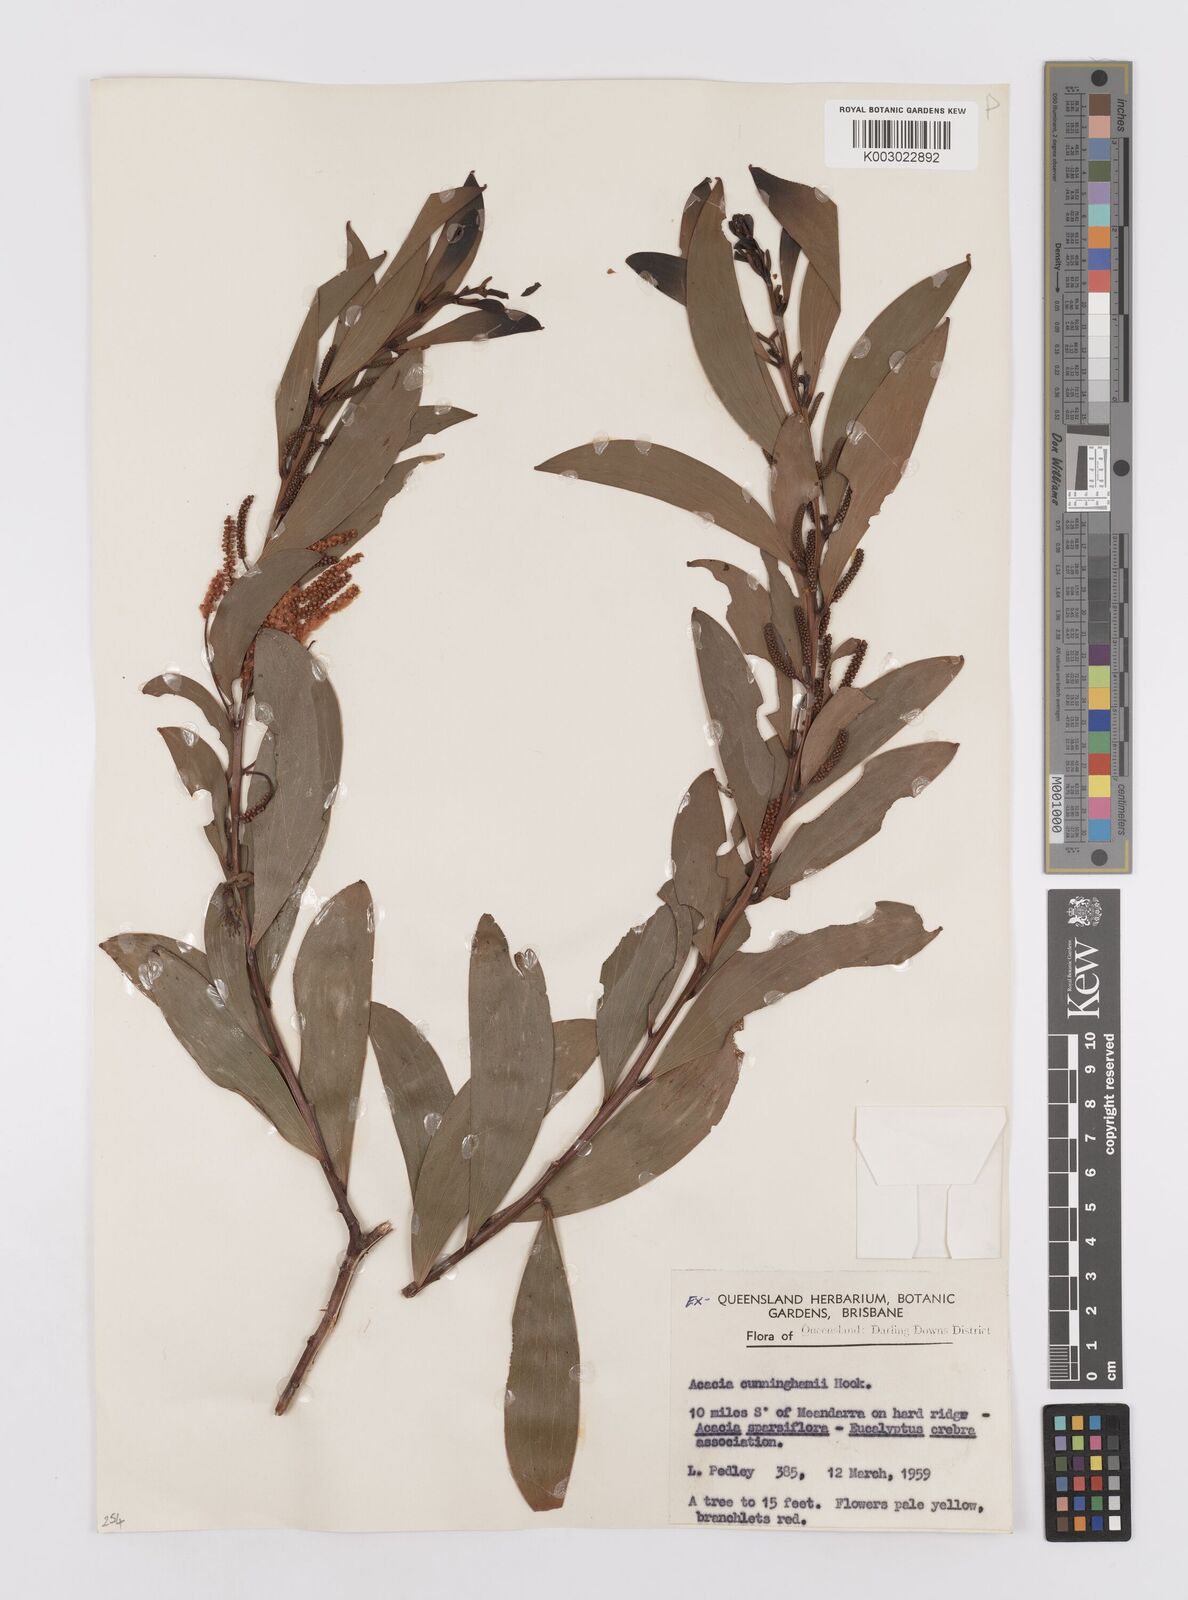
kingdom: Plantae
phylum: Tracheophyta
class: Magnoliopsida
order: Fabales
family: Fabaceae
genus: Acacia
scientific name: Acacia longispicata
